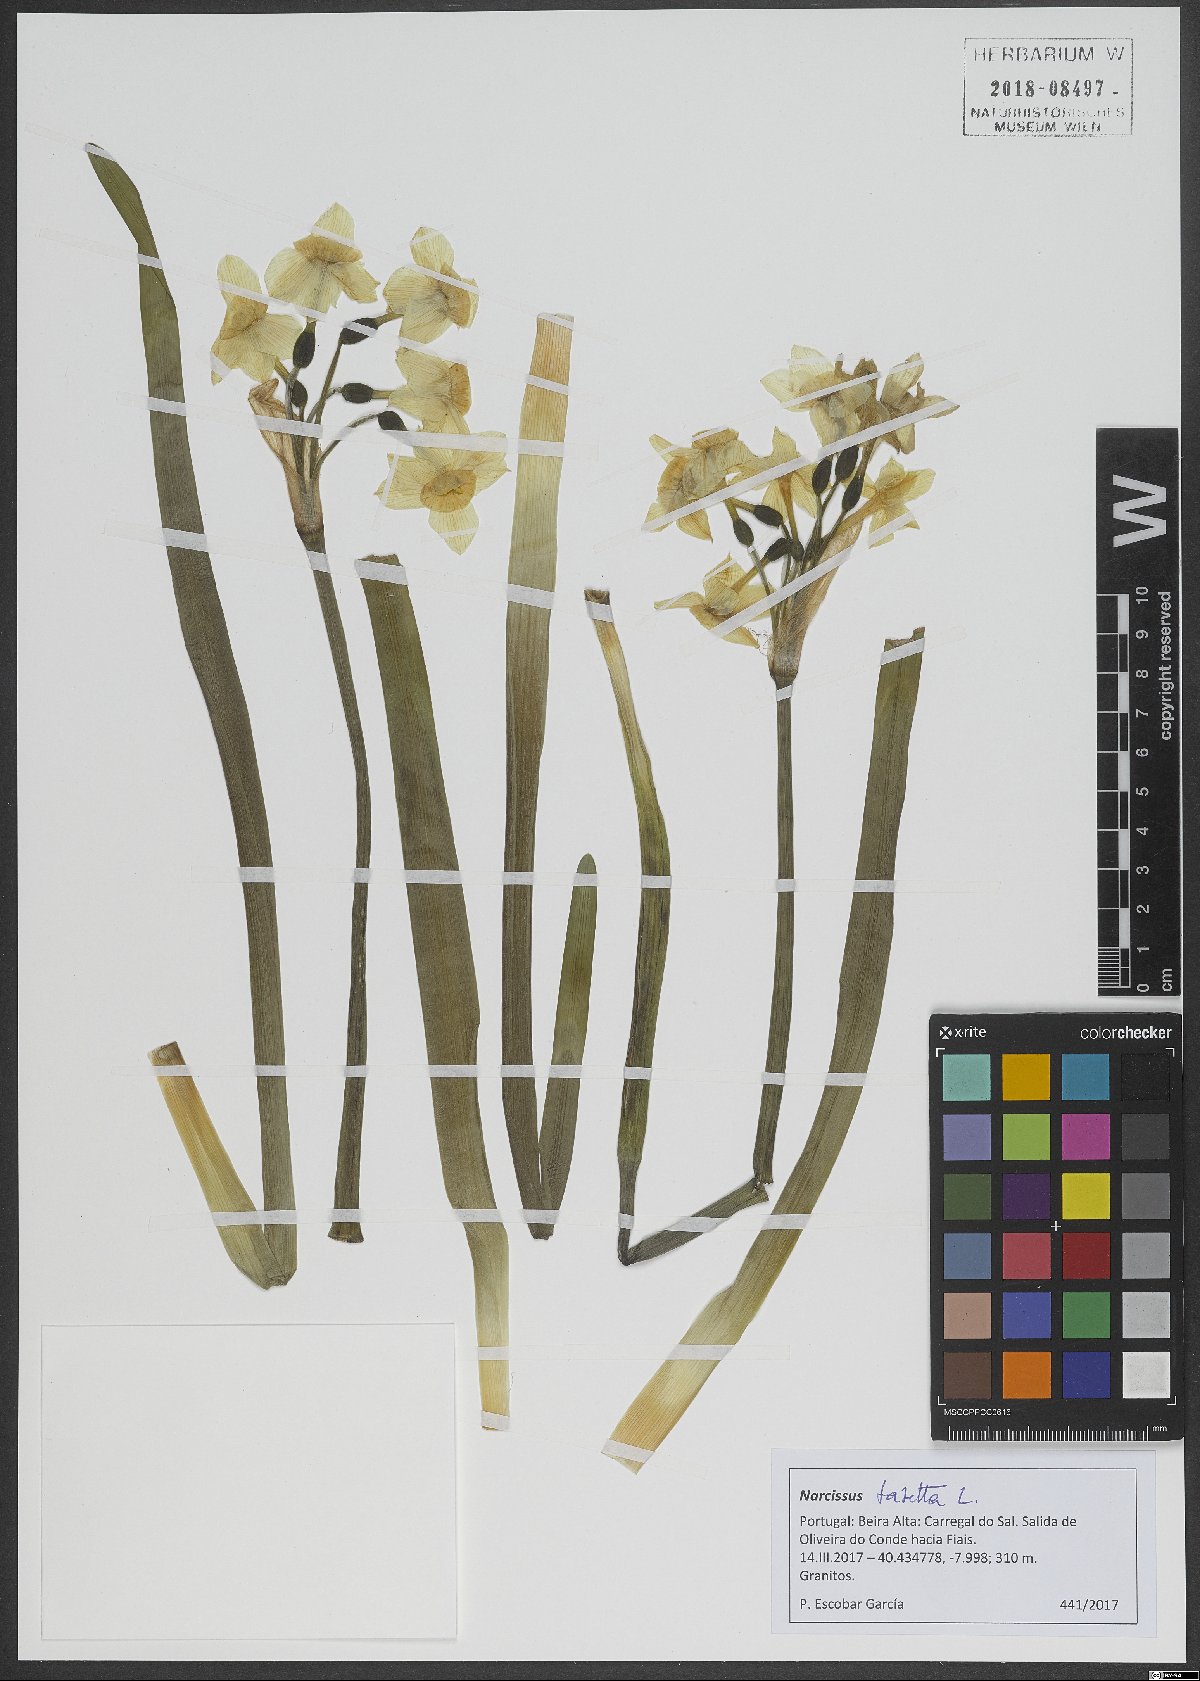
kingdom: Plantae
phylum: Tracheophyta
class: Liliopsida
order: Asparagales
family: Amaryllidaceae
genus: Narcissus
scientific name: Narcissus tazetta
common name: Bunch-flowered daffodil
